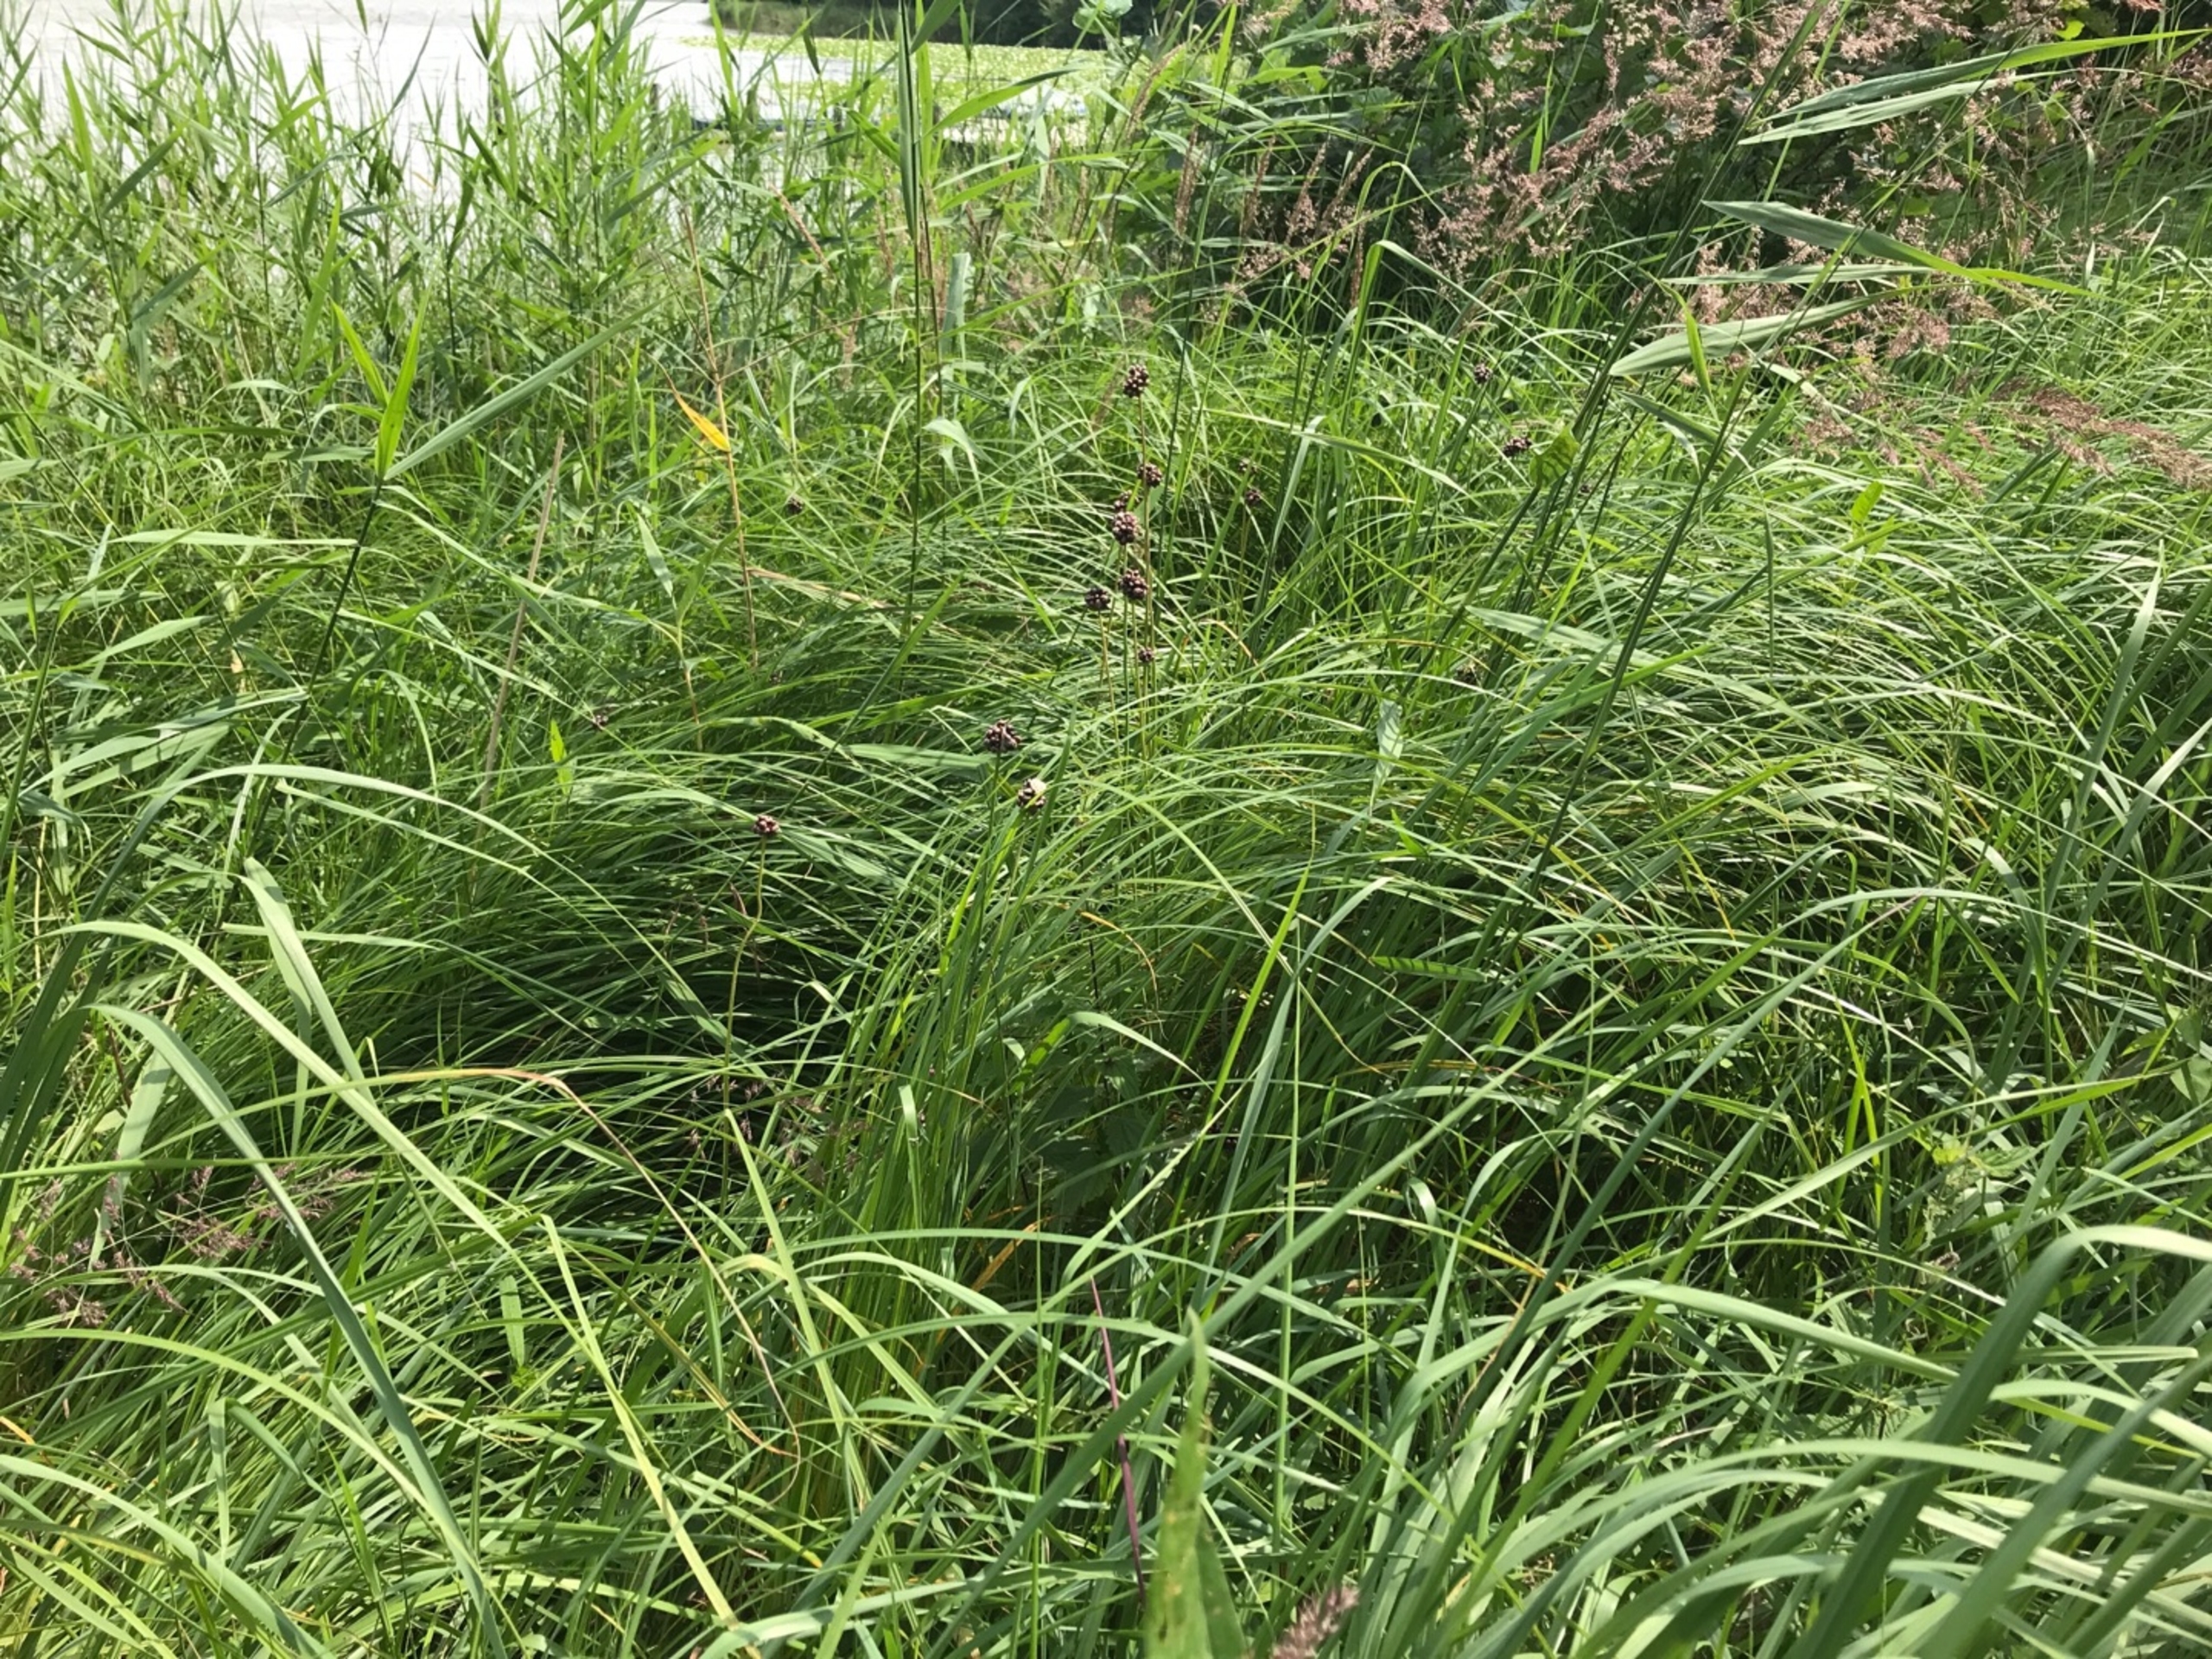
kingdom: Plantae
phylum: Tracheophyta
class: Liliopsida
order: Asparagales
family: Amaryllidaceae
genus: Allium
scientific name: Allium scorodoprasum
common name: Skov-løg
